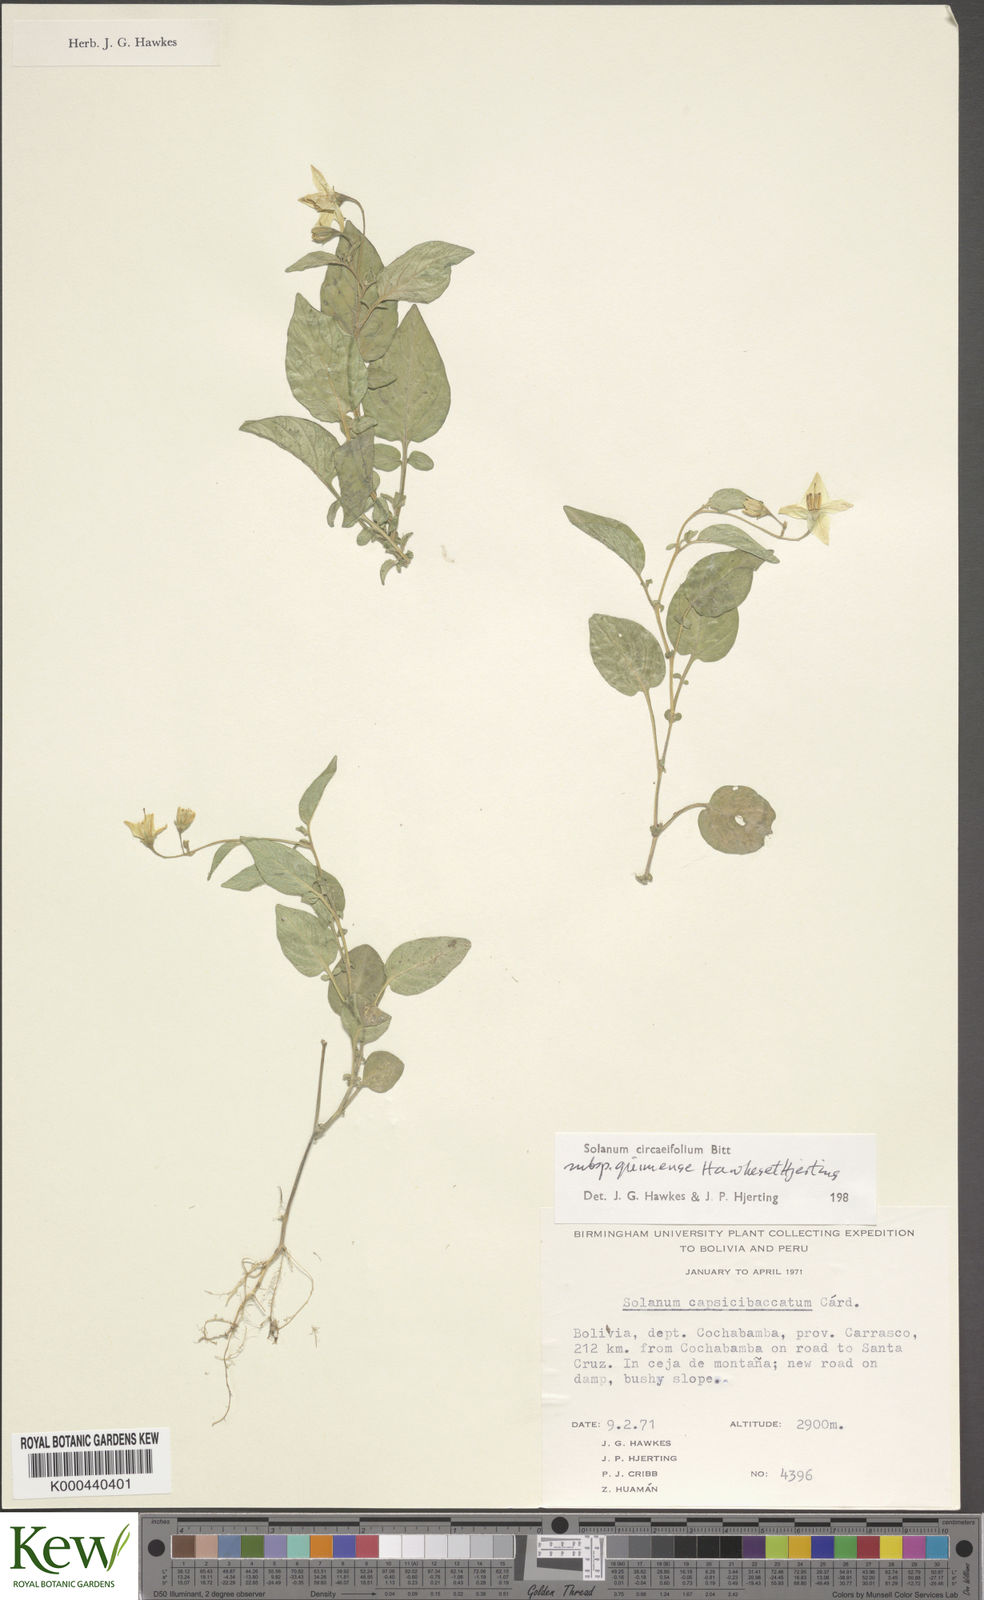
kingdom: Plantae
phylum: Tracheophyta
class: Magnoliopsida
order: Solanales
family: Solanaceae
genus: Solanum
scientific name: Solanum stipuloideum
